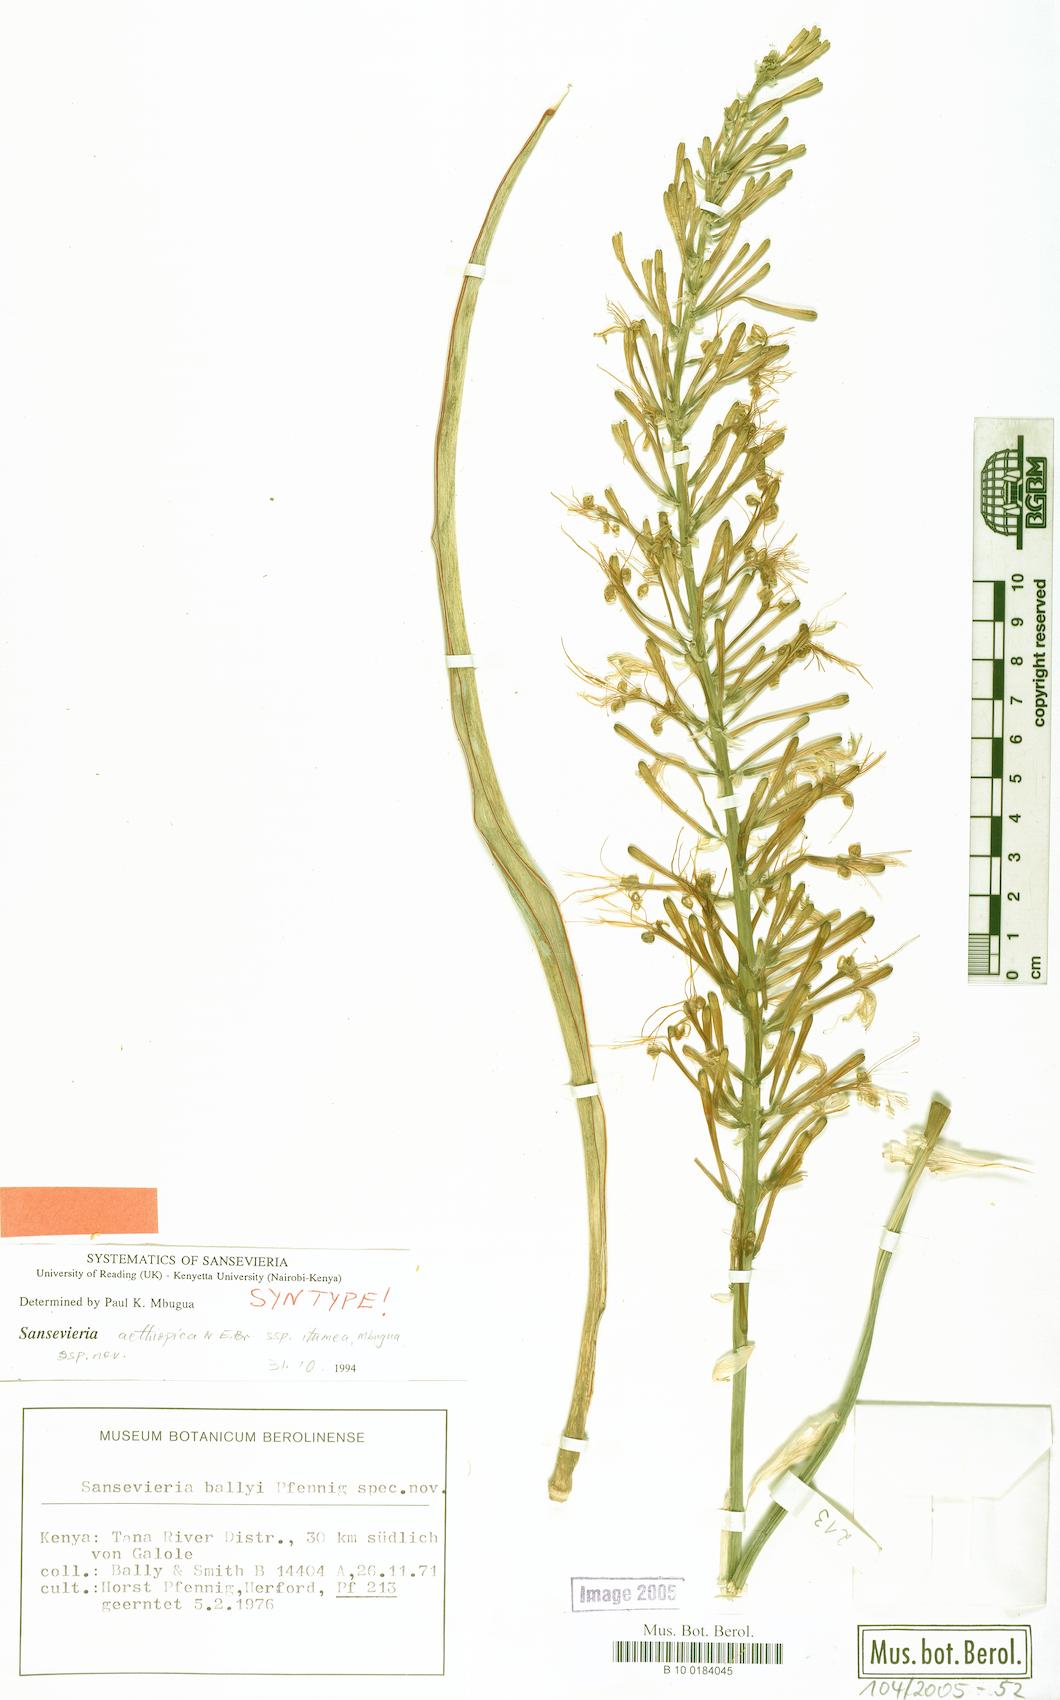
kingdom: Plantae
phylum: Tracheophyta
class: Liliopsida
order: Asparagales
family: Asparagaceae
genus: Sansevieria
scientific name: Sansevieria itumea
